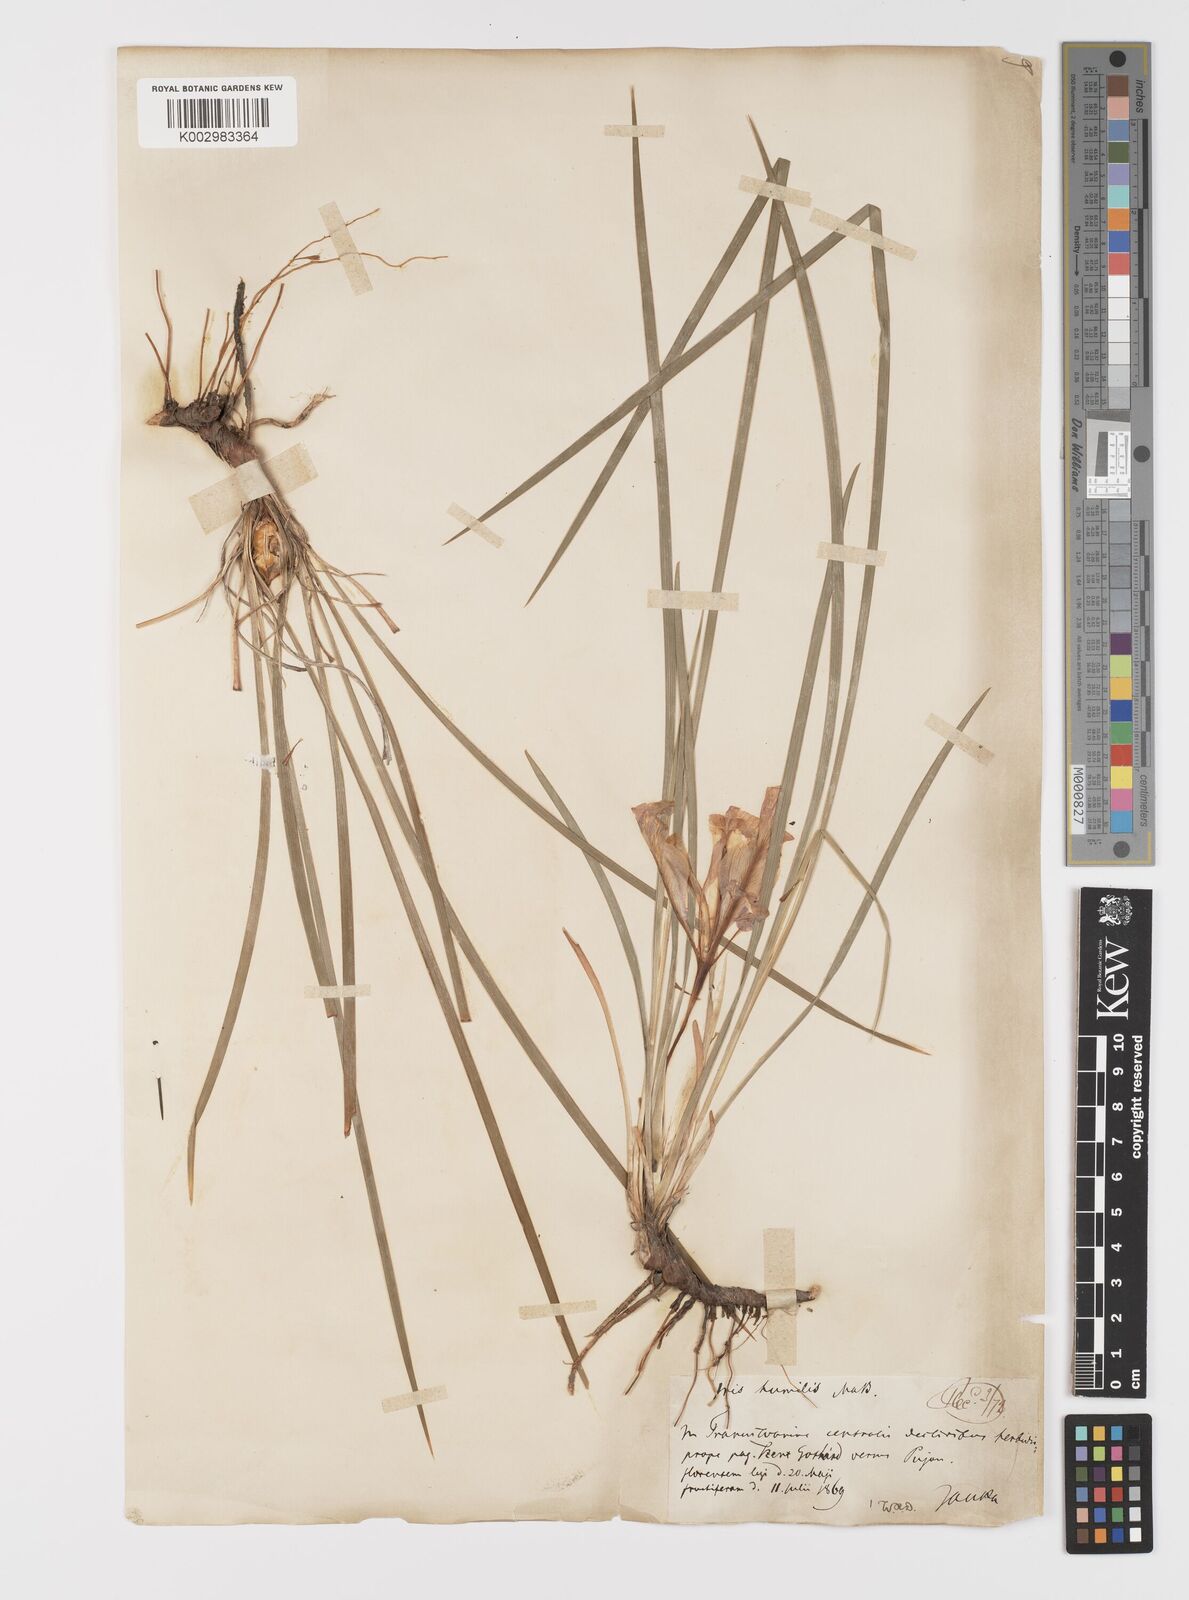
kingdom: Plantae
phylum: Tracheophyta
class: Liliopsida
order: Asparagales
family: Iridaceae
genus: Iris
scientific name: Iris pontica
